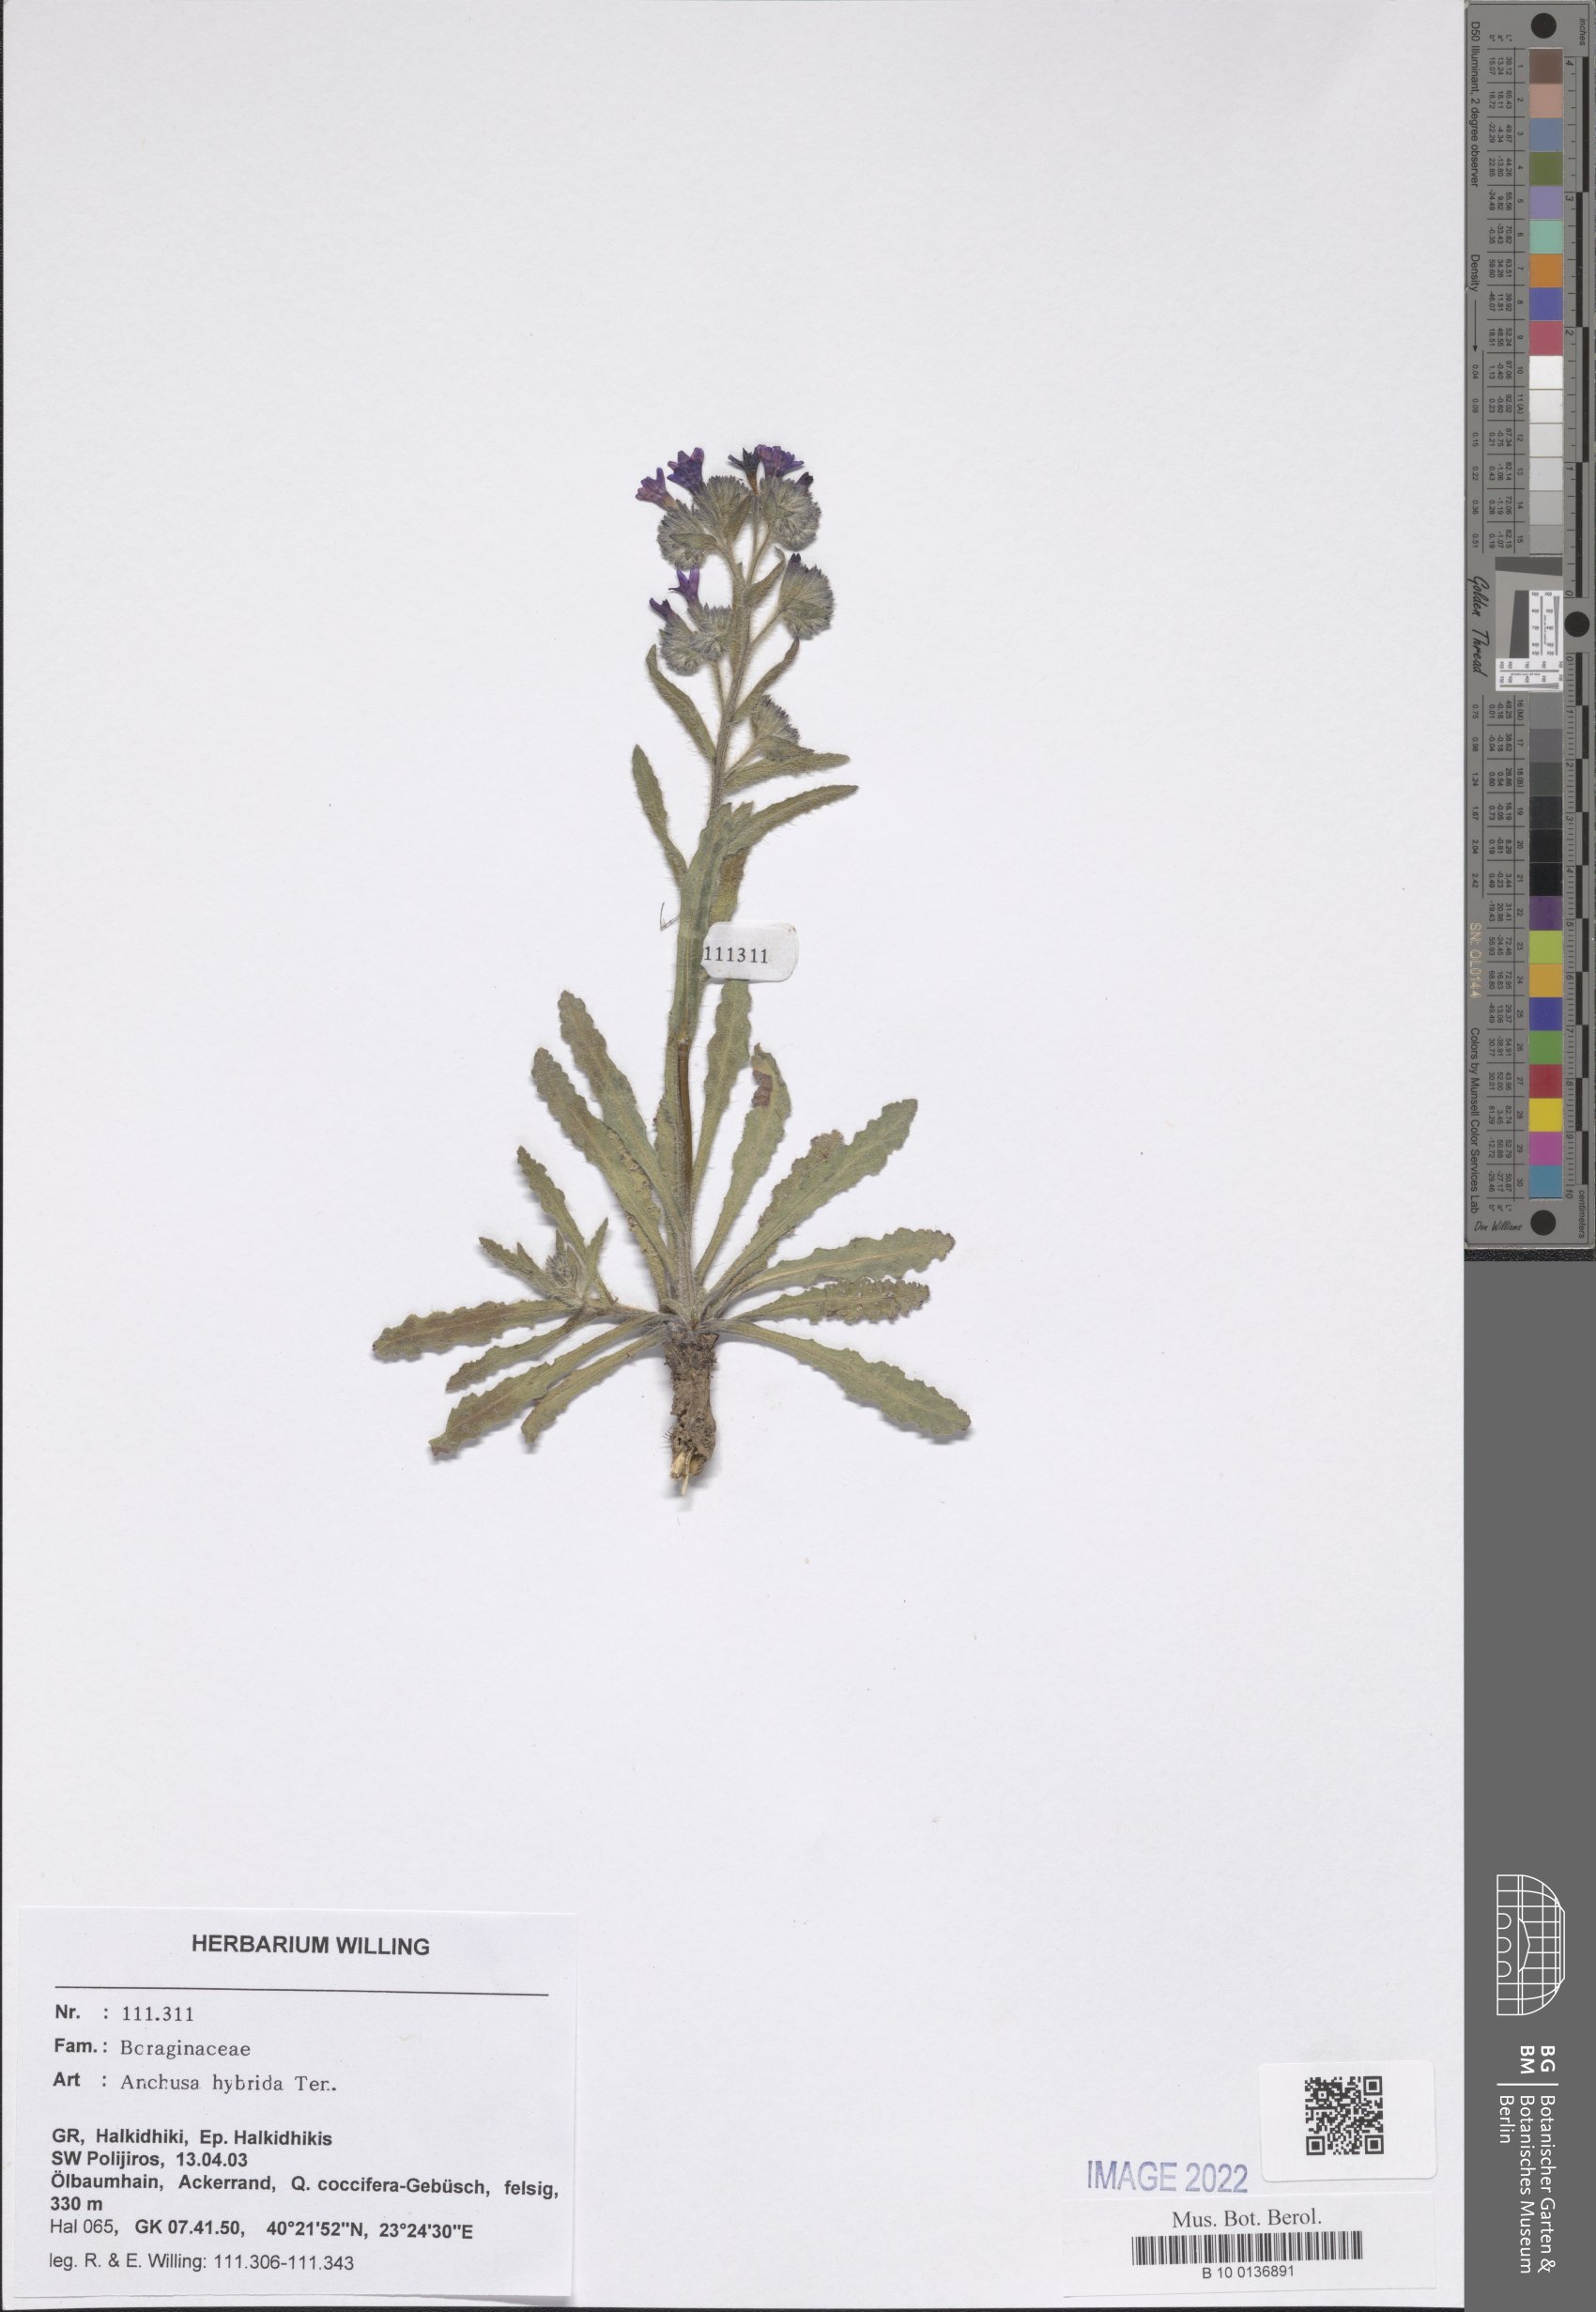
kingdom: Plantae
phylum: Tracheophyta
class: Magnoliopsida
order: Boraginales
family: Boraginaceae
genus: Anchusa
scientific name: Anchusa hybrida
